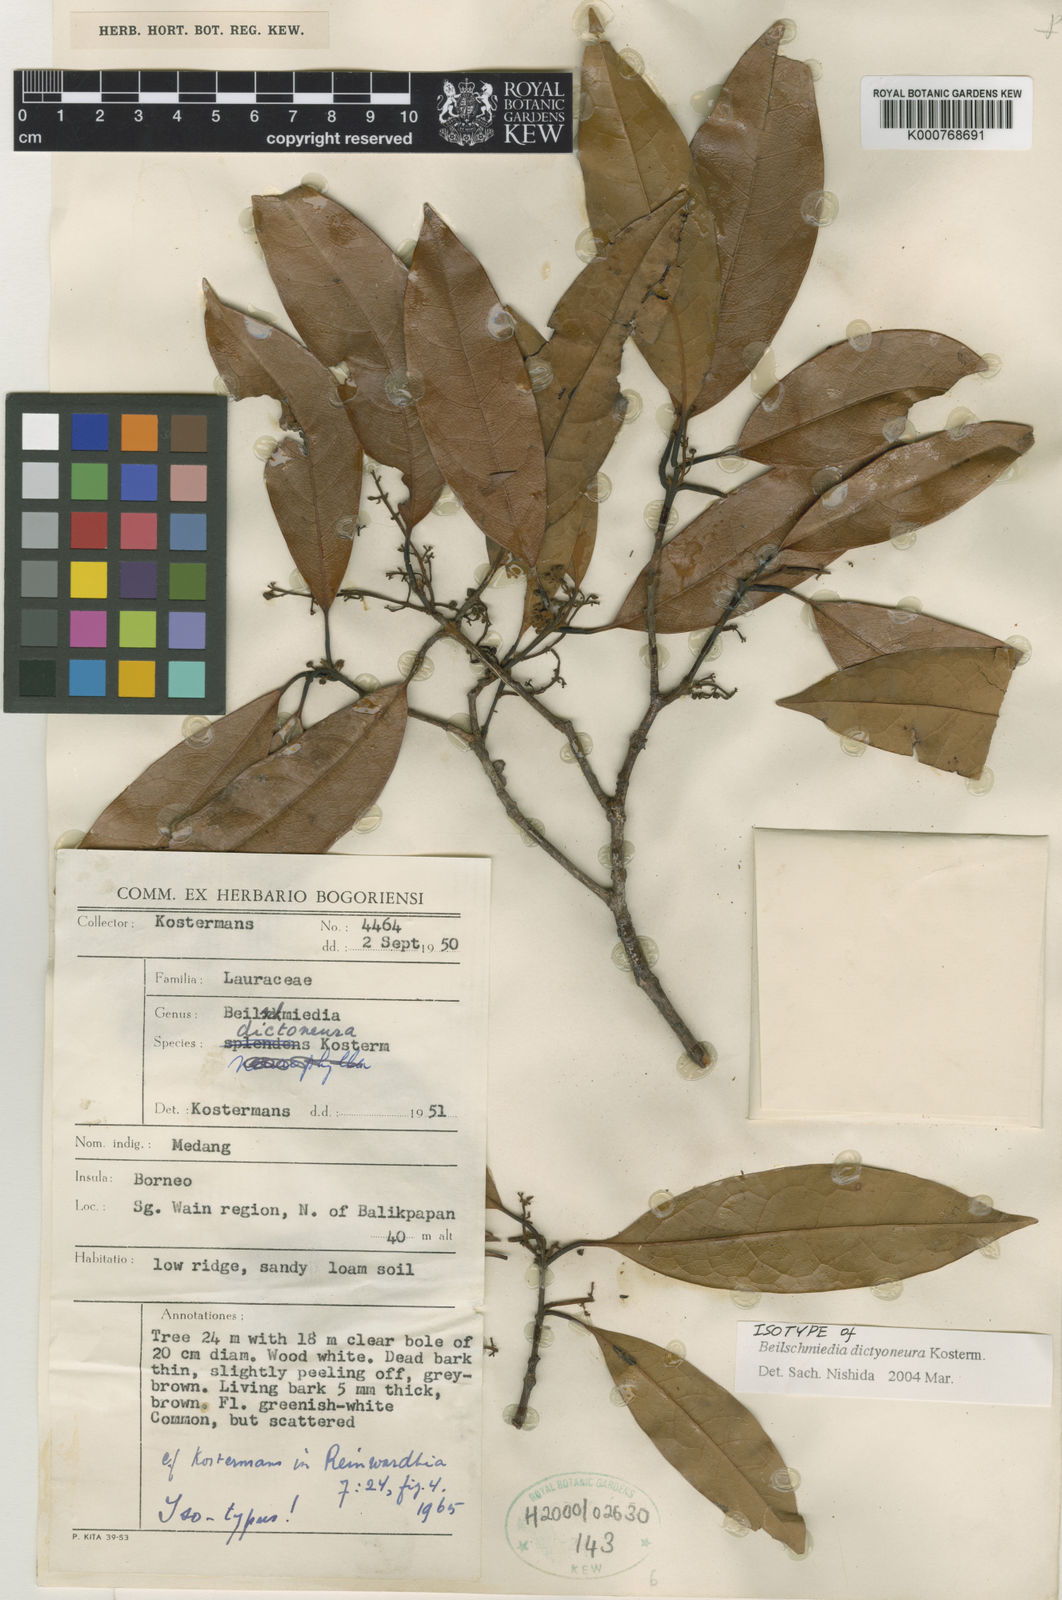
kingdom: Plantae
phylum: Tracheophyta
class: Magnoliopsida
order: Laurales
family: Lauraceae
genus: Beilschmiedia
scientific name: Beilschmiedia dictyoneura
